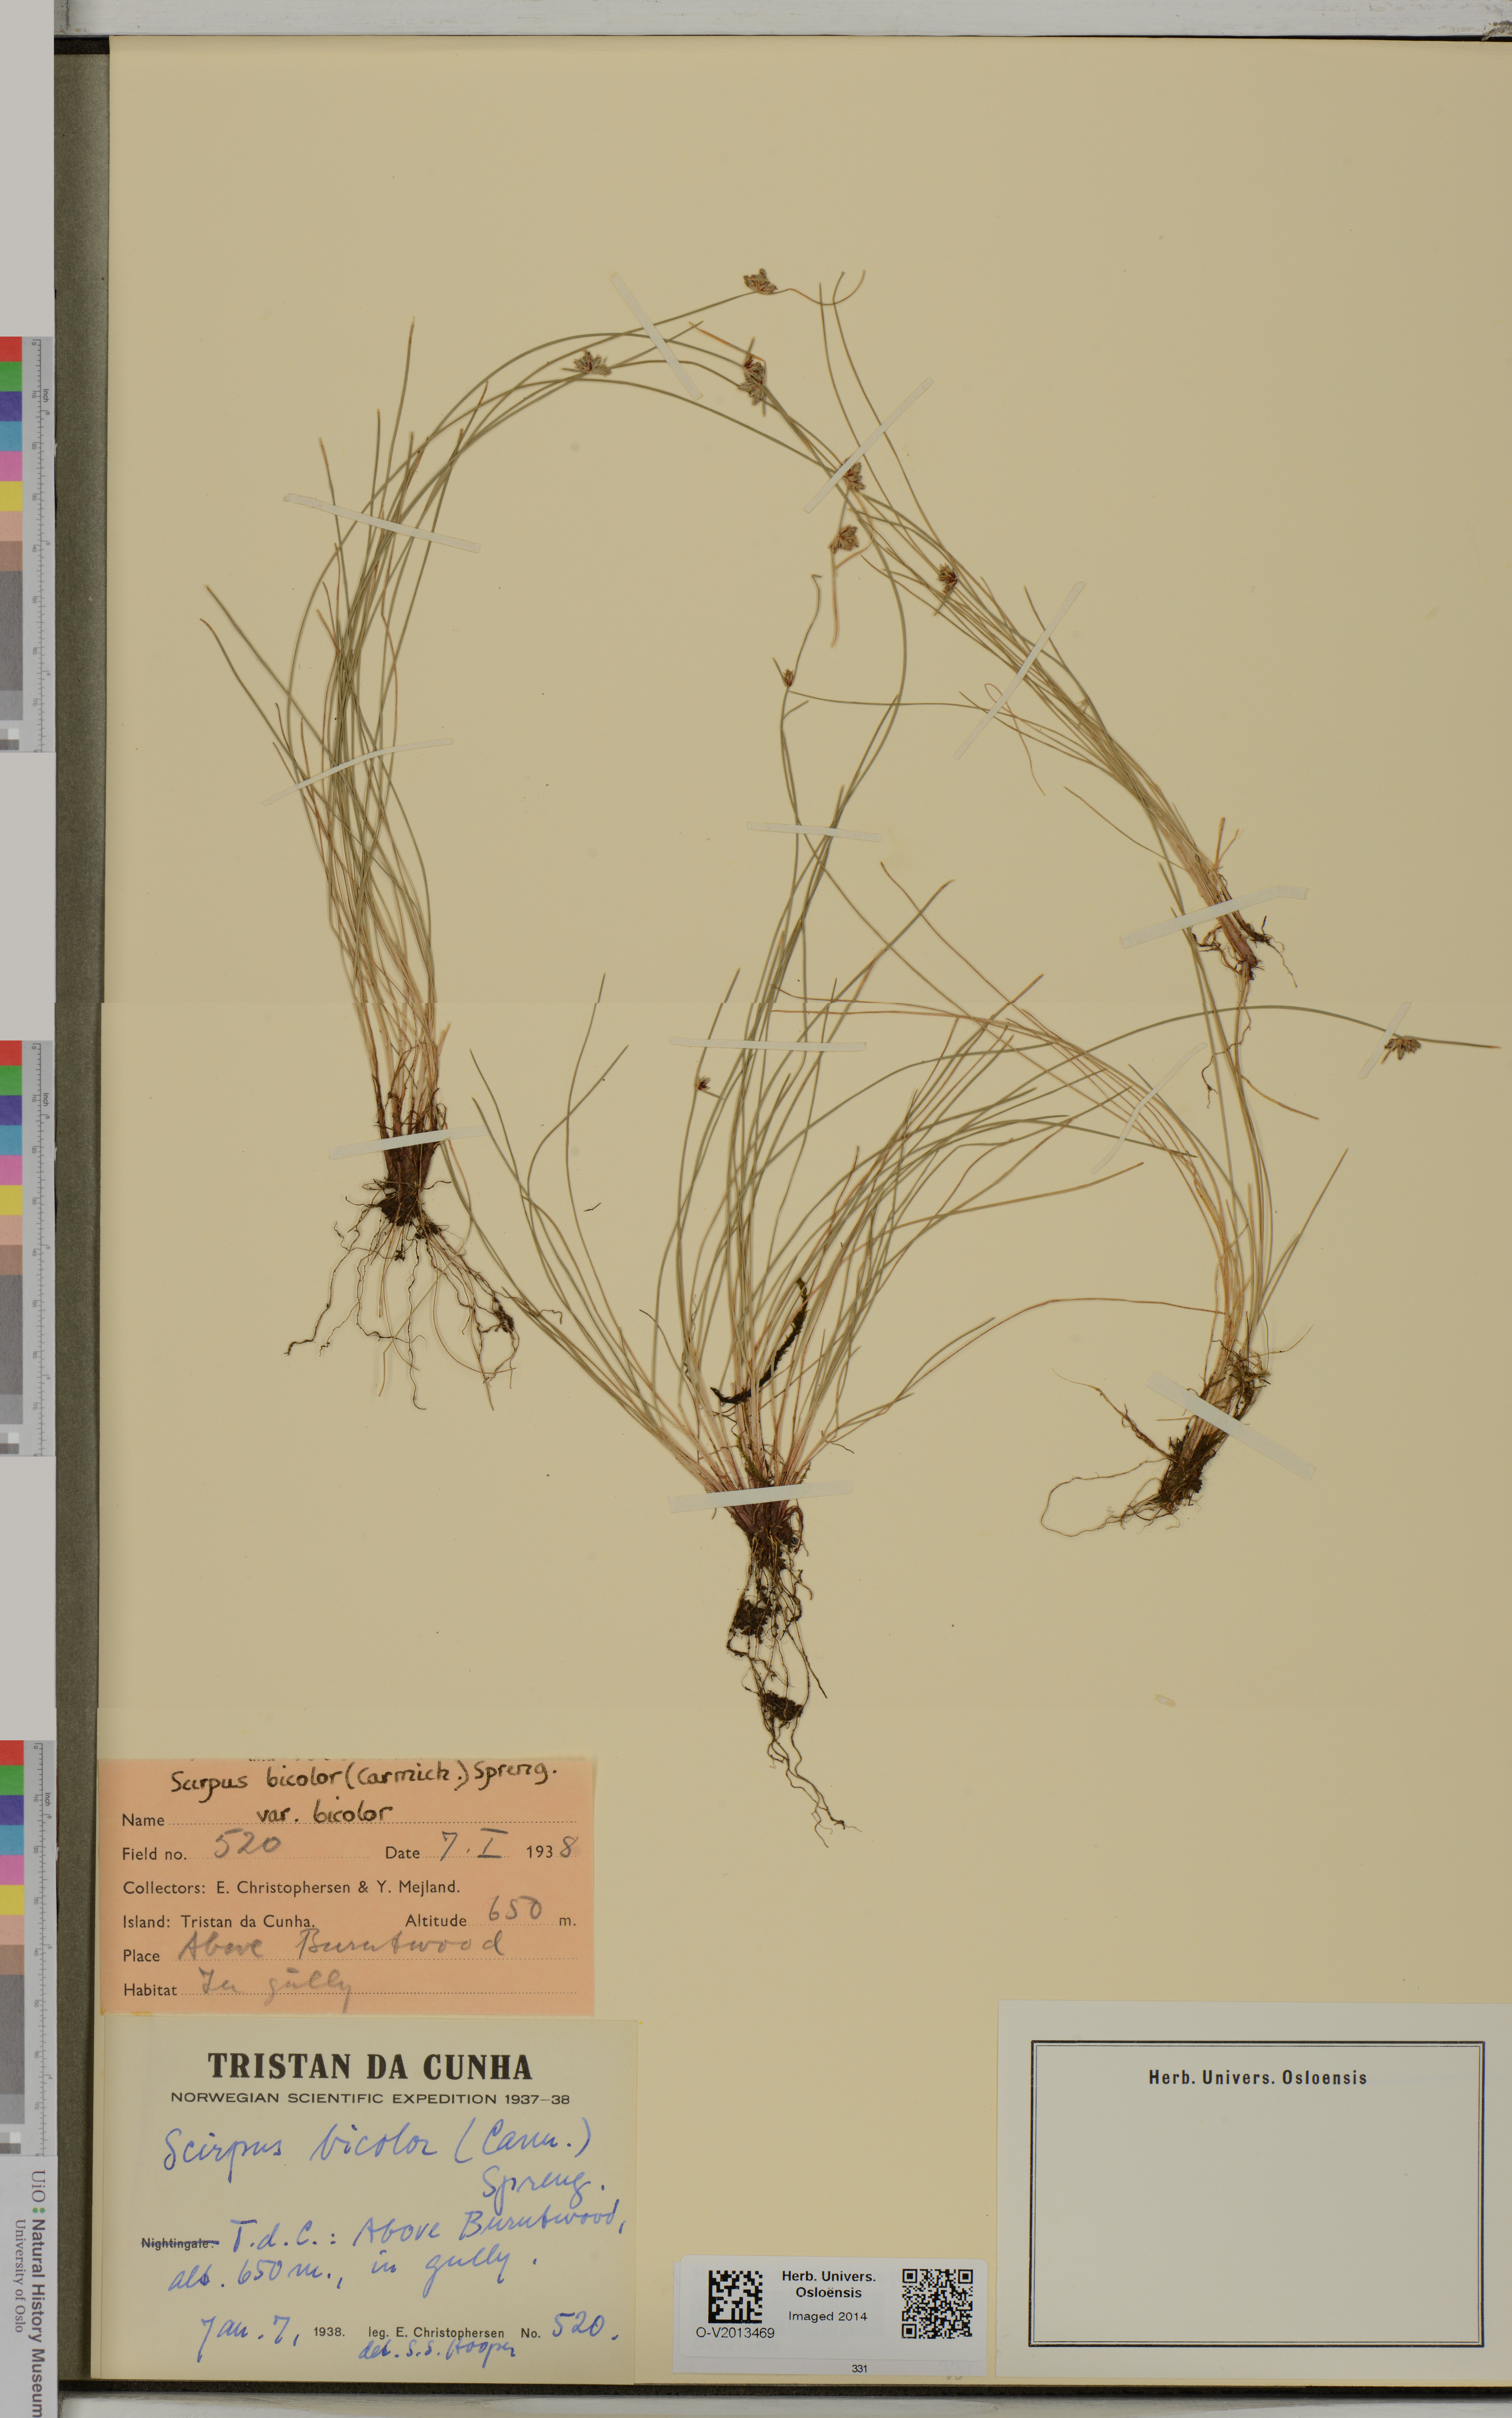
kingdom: Plantae
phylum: Tracheophyta
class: Liliopsida
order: Poales
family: Cyperaceae
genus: Isolepis
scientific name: Isolepis bicolor
